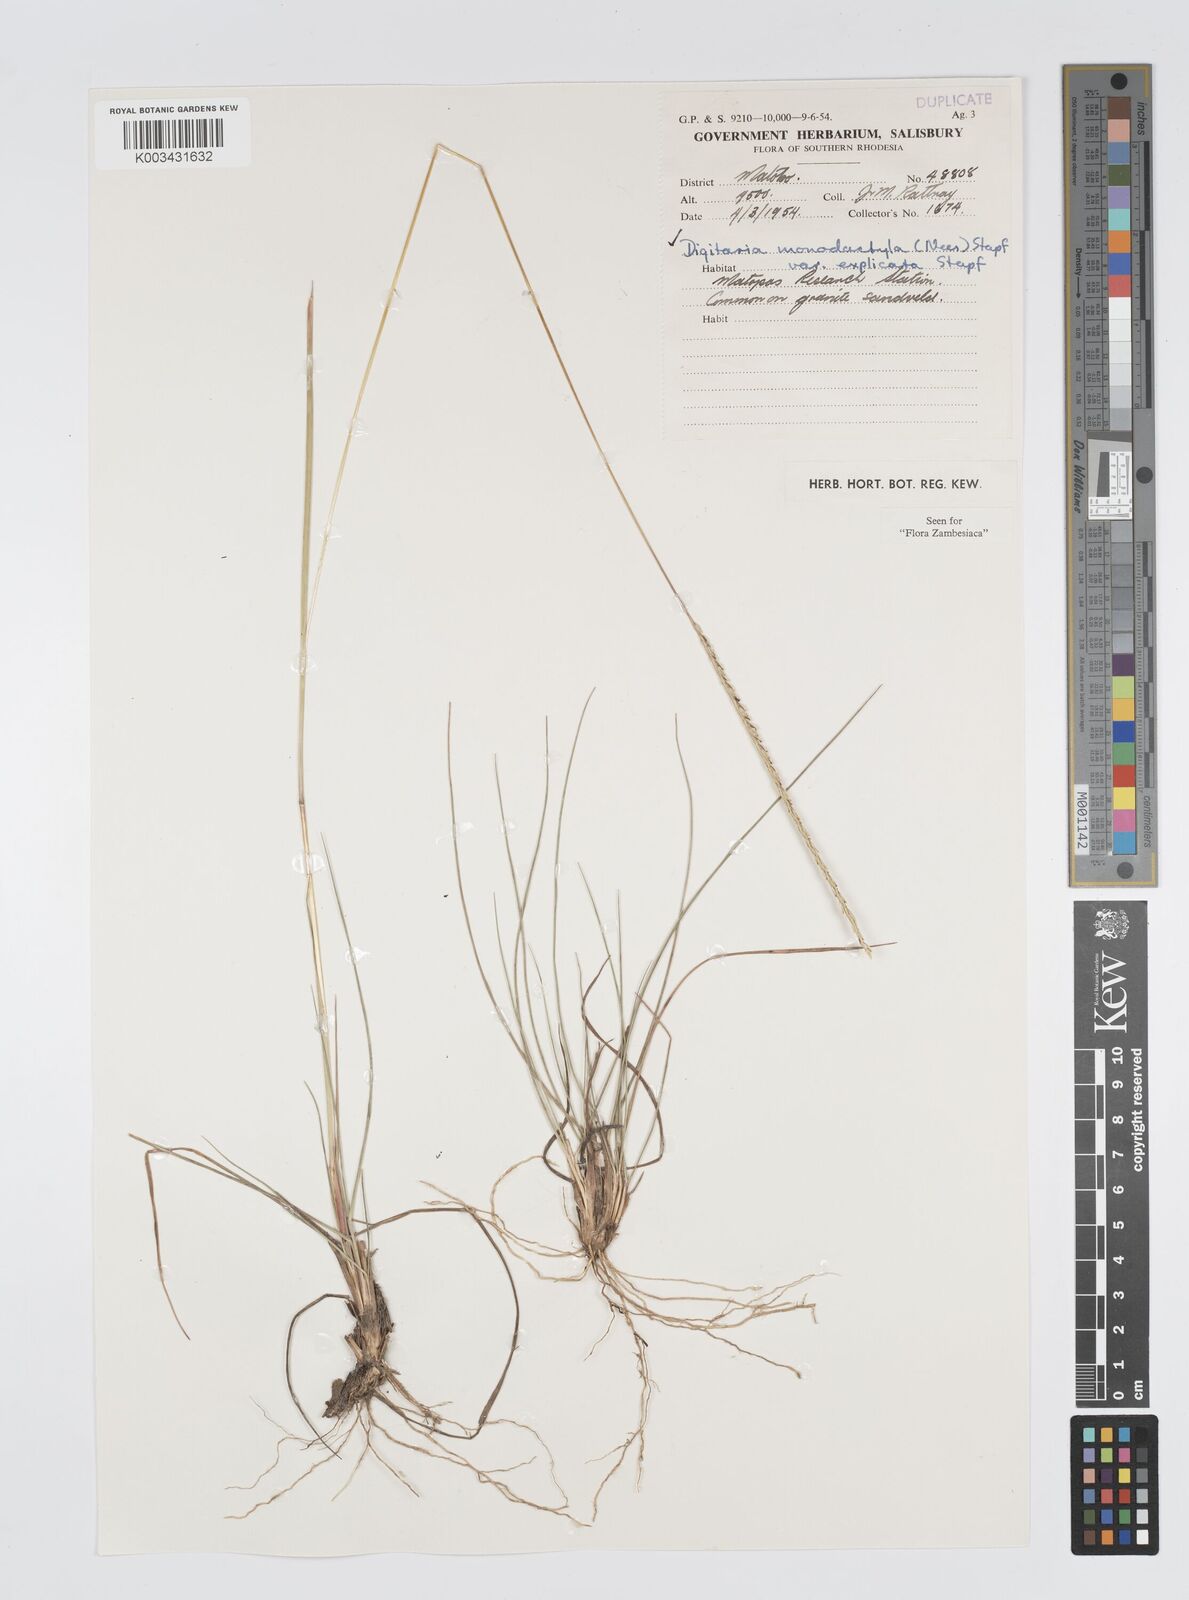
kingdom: Plantae
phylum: Tracheophyta
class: Liliopsida
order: Poales
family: Poaceae
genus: Digitaria
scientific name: Digitaria monodactyla
